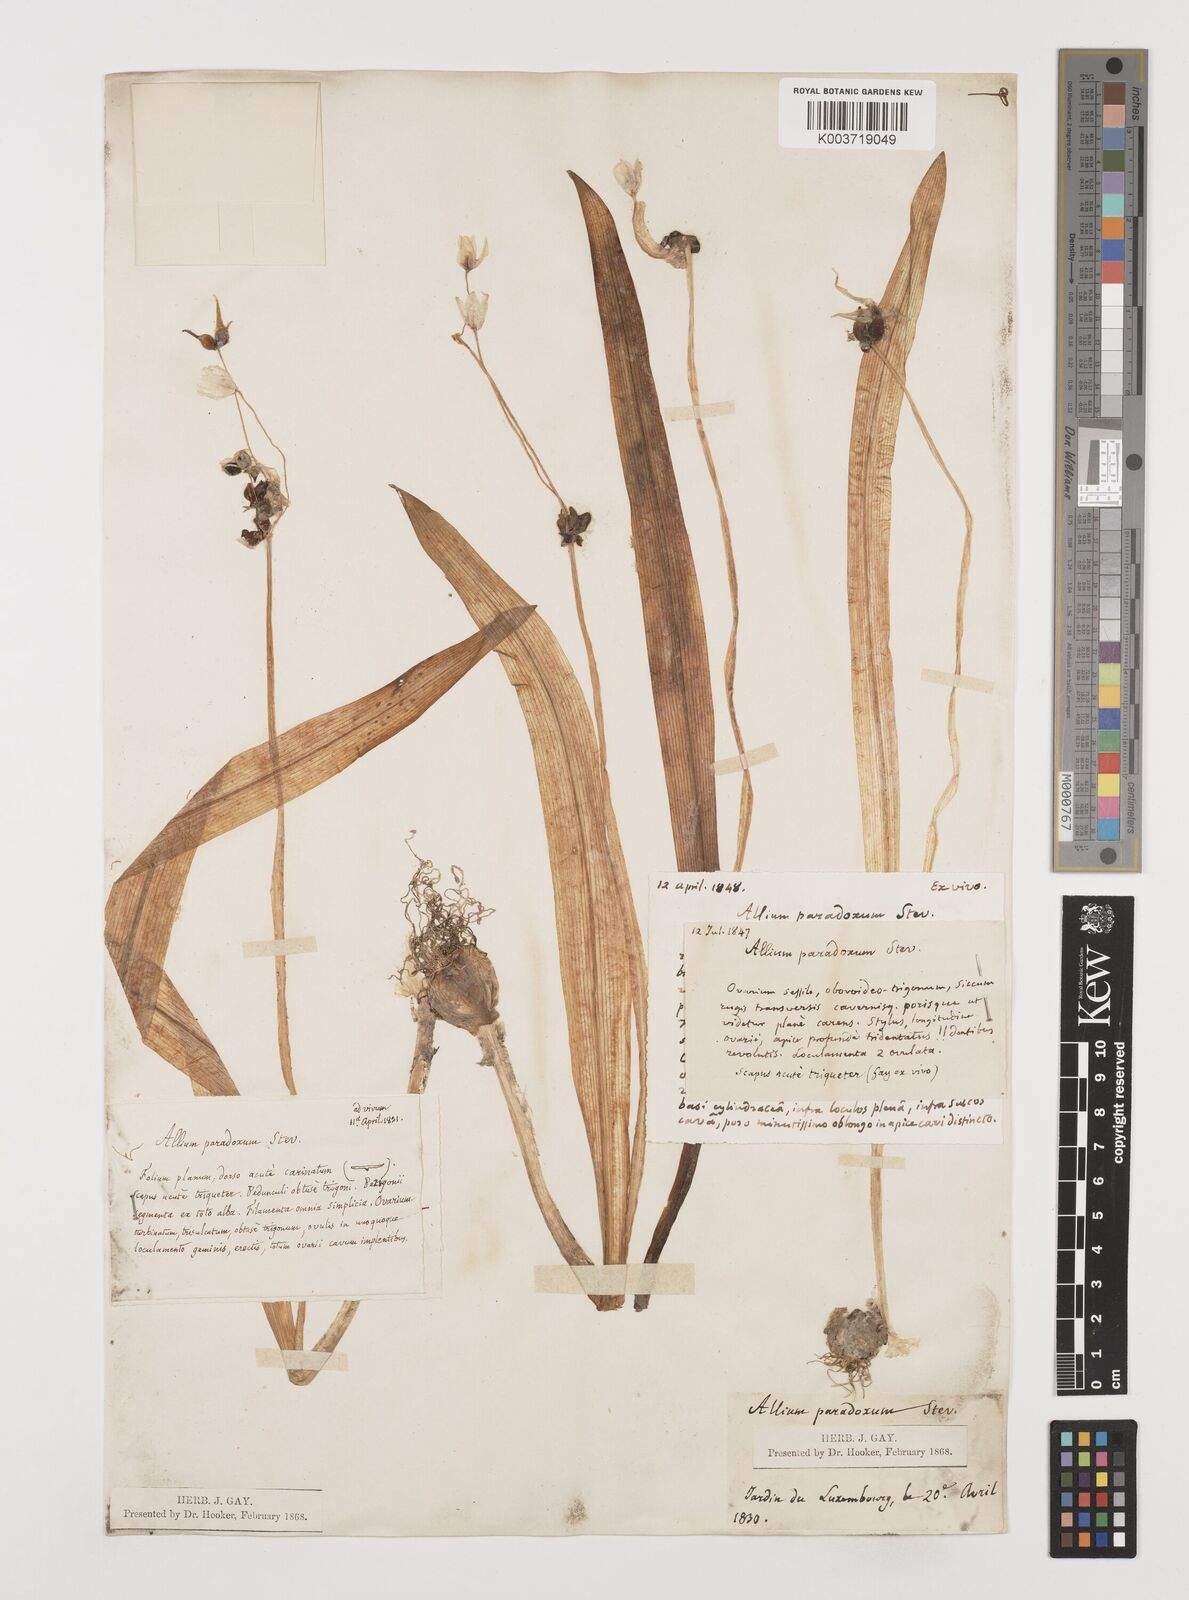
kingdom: Plantae
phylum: Tracheophyta
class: Liliopsida
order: Asparagales
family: Amaryllidaceae
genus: Allium
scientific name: Allium paradoxum
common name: Few-flowered garlic
